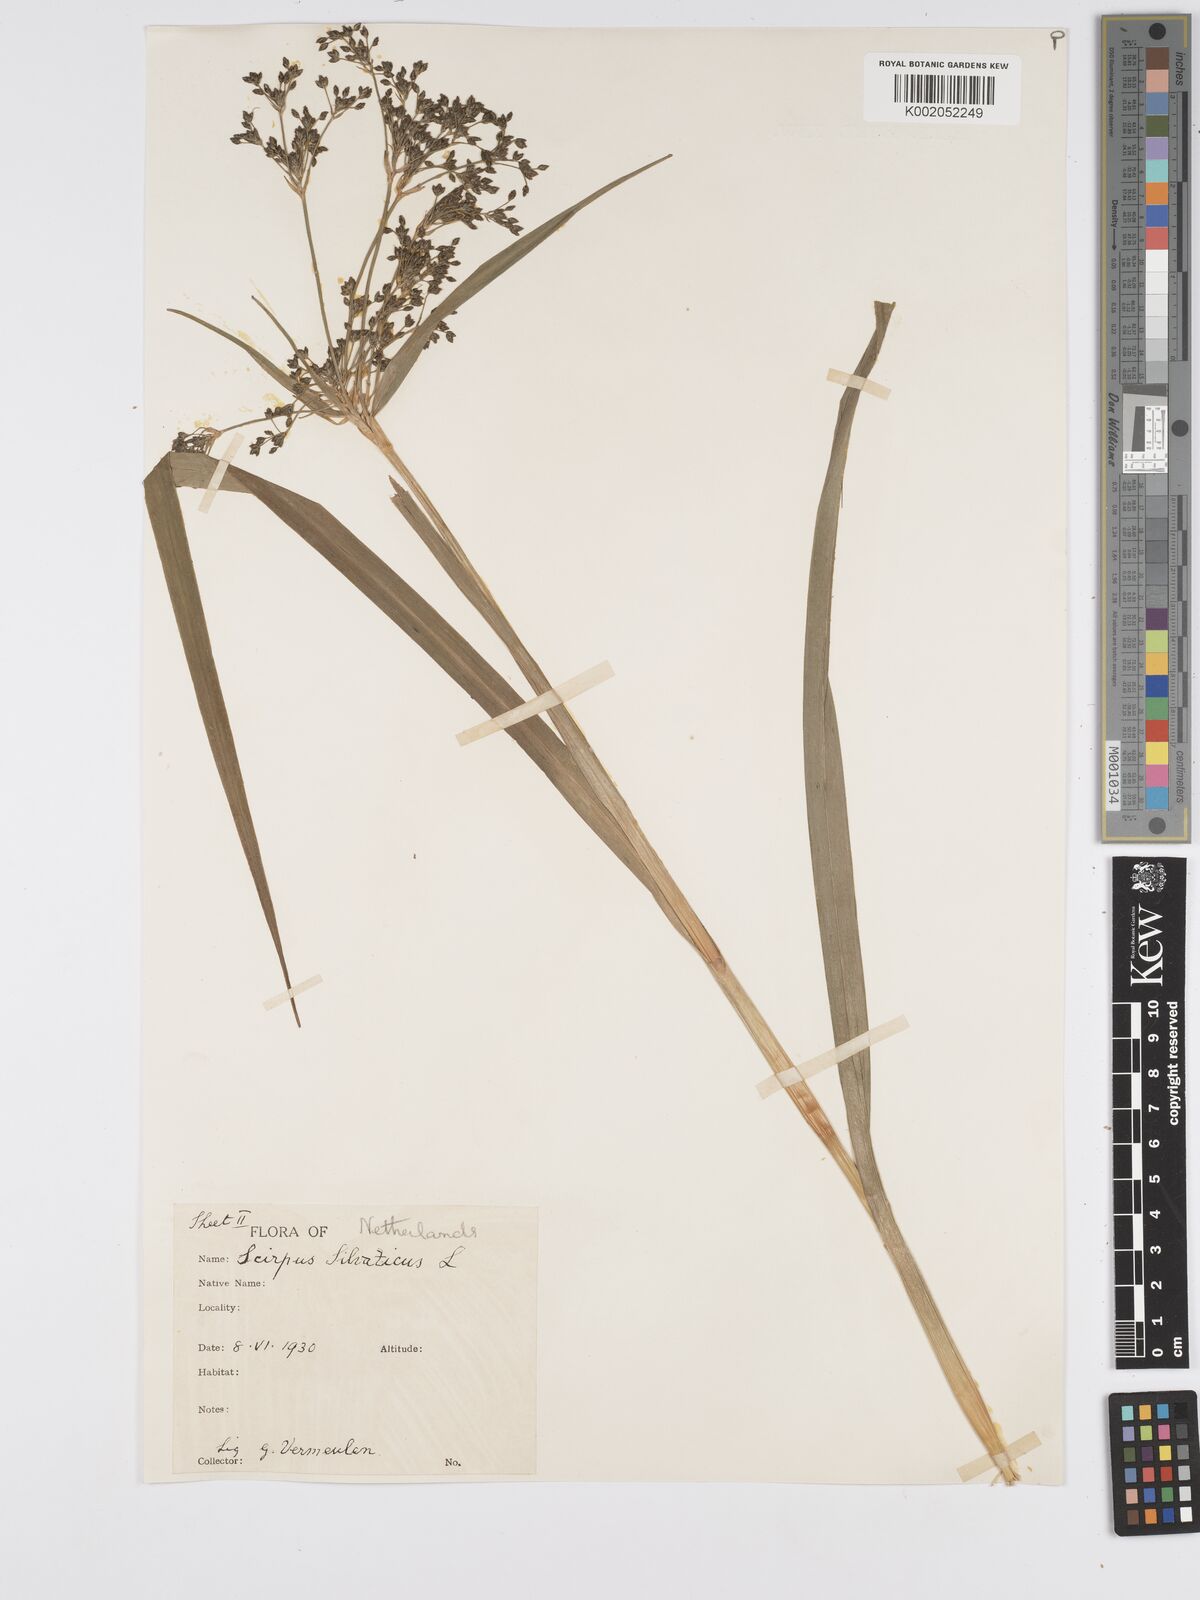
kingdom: Plantae
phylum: Tracheophyta
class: Liliopsida
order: Poales
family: Cyperaceae
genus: Scirpus
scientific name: Scirpus sylvaticus
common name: Wood club-rush
